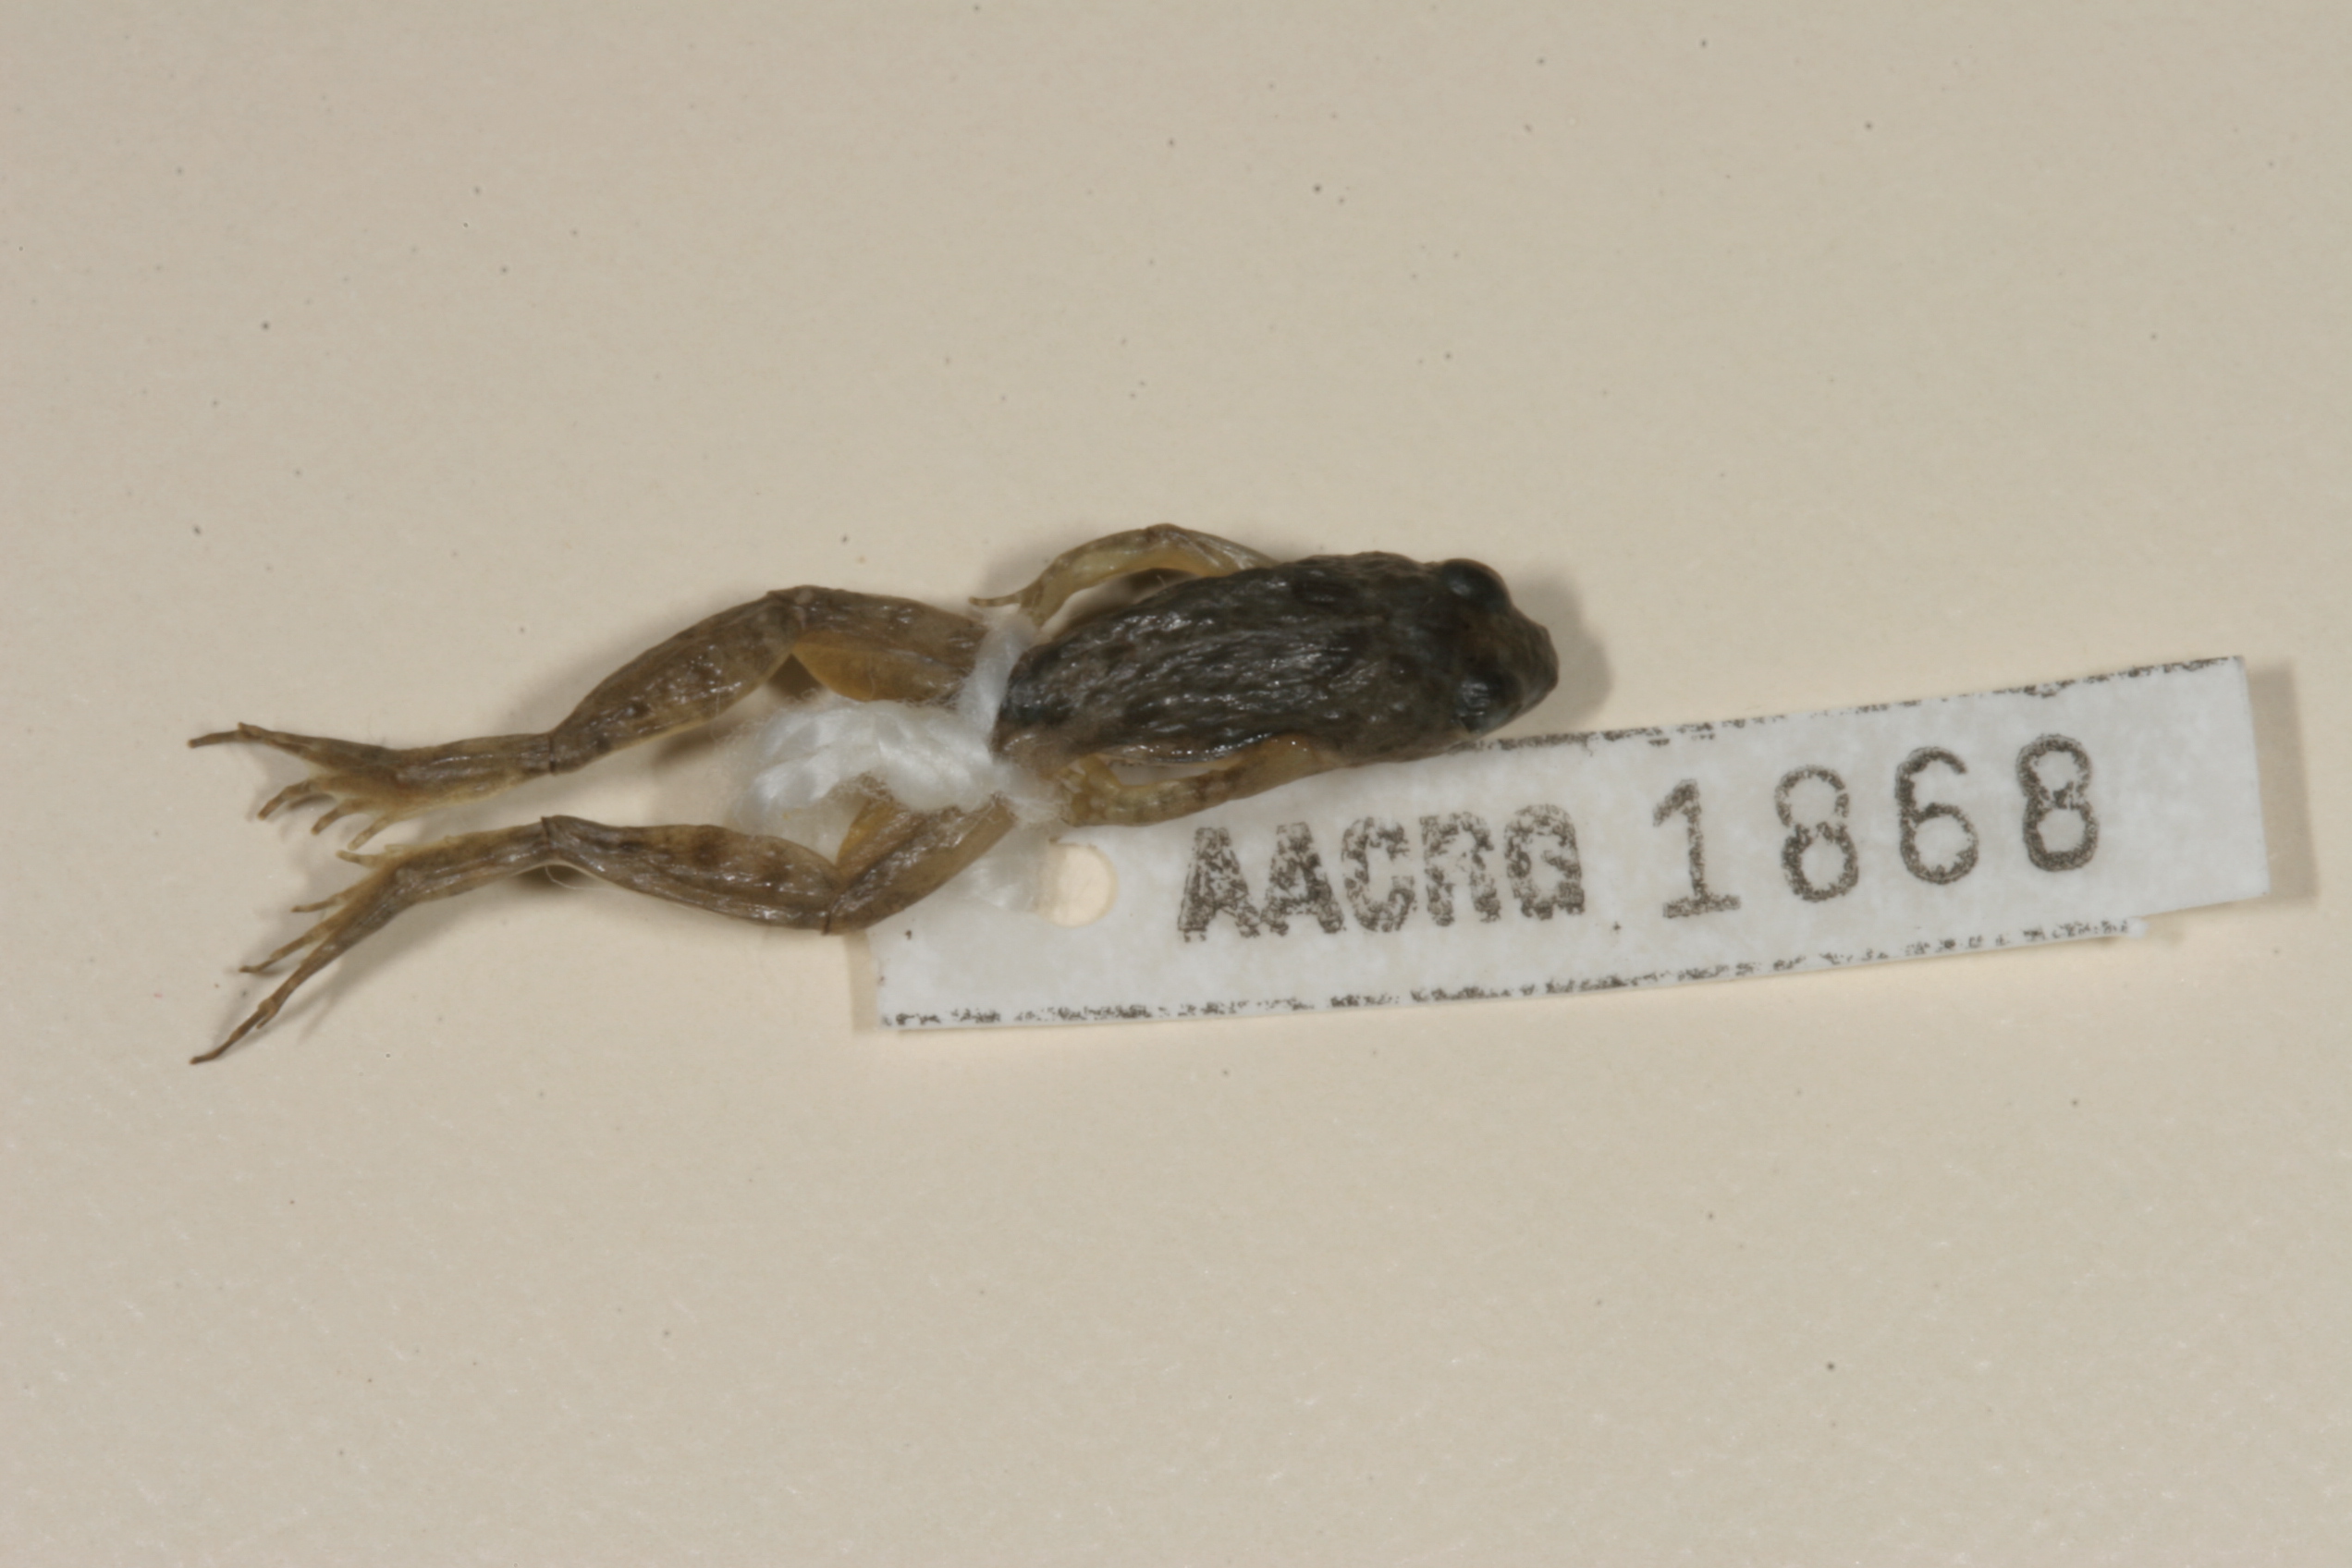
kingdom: Animalia
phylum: Chordata
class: Amphibia
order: Anura
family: Phrynobatrachidae
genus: Phrynobatrachus
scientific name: Phrynobatrachus mababiensis
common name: Dwarf puddle frog
